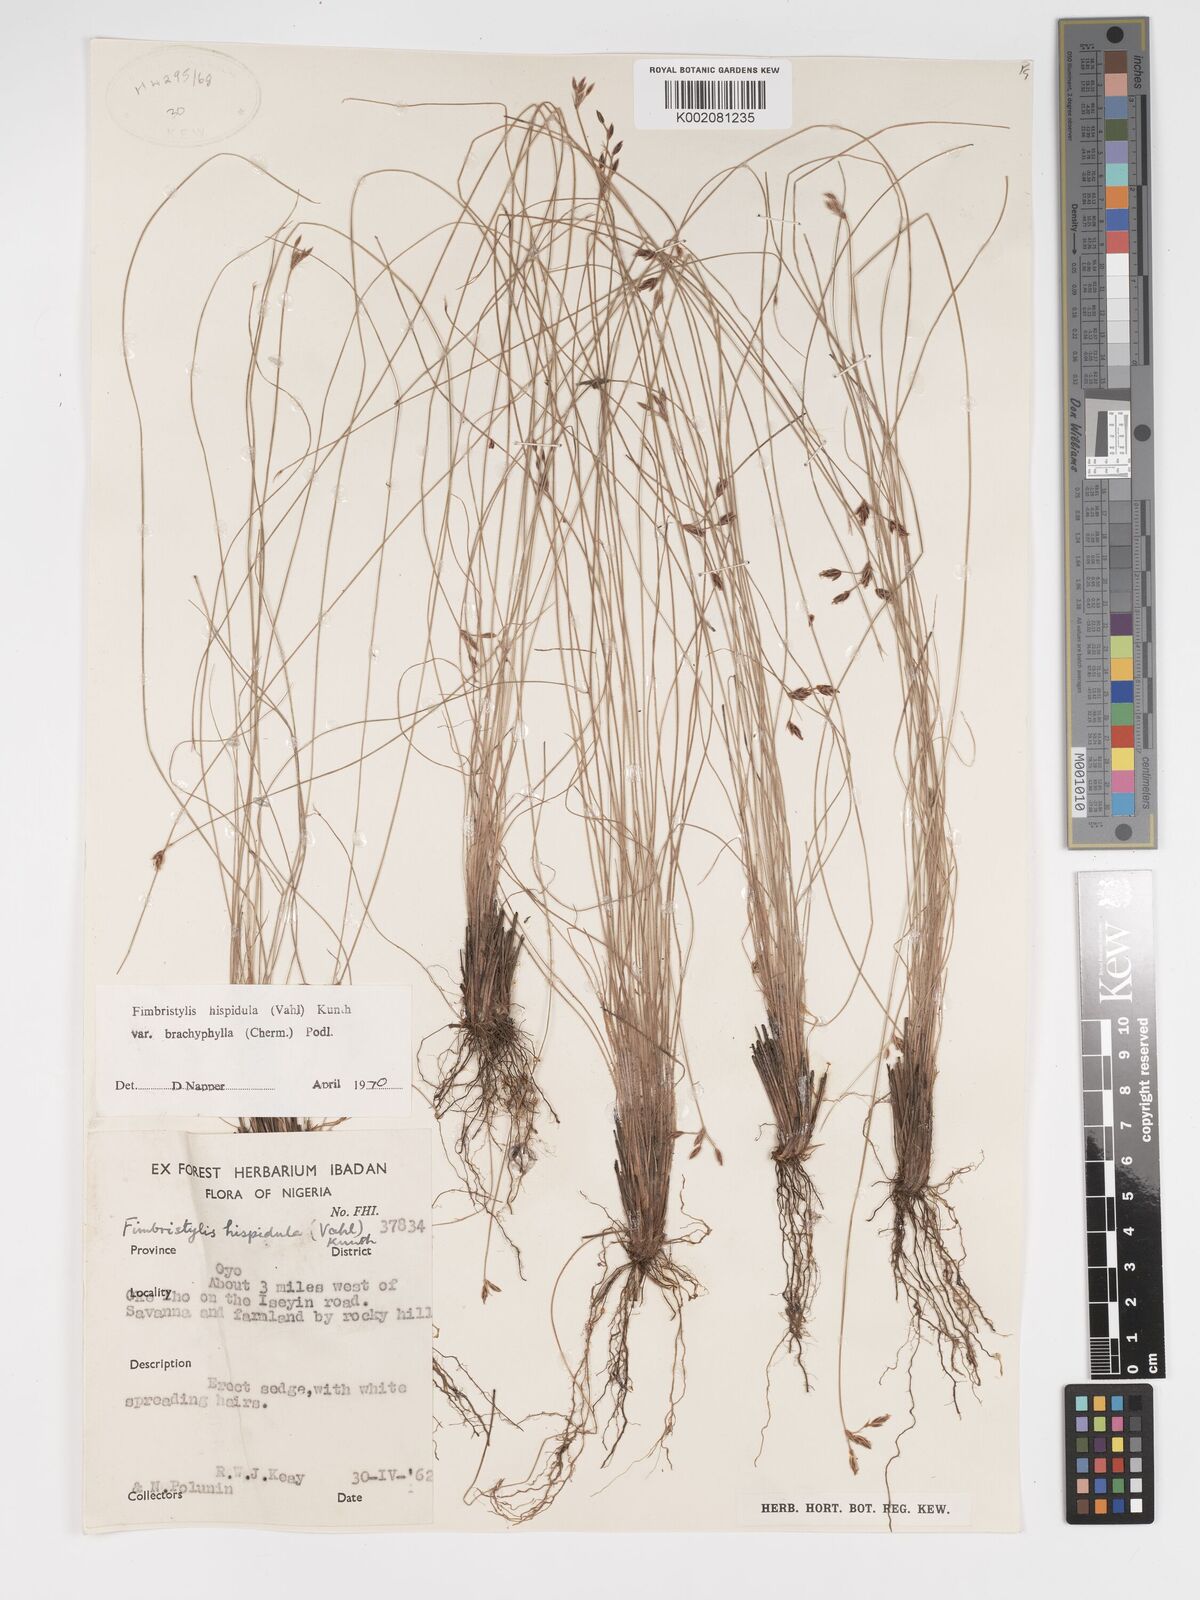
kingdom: Plantae
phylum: Tracheophyta
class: Liliopsida
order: Poales
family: Cyperaceae
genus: Bulbostylis
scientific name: Bulbostylis hispidula
